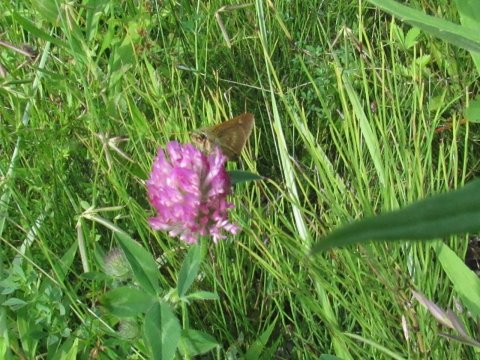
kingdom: Animalia
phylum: Arthropoda
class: Insecta
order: Lepidoptera
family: Hesperiidae
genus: Polites
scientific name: Polites egeremet
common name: Northern Broken-Dash
